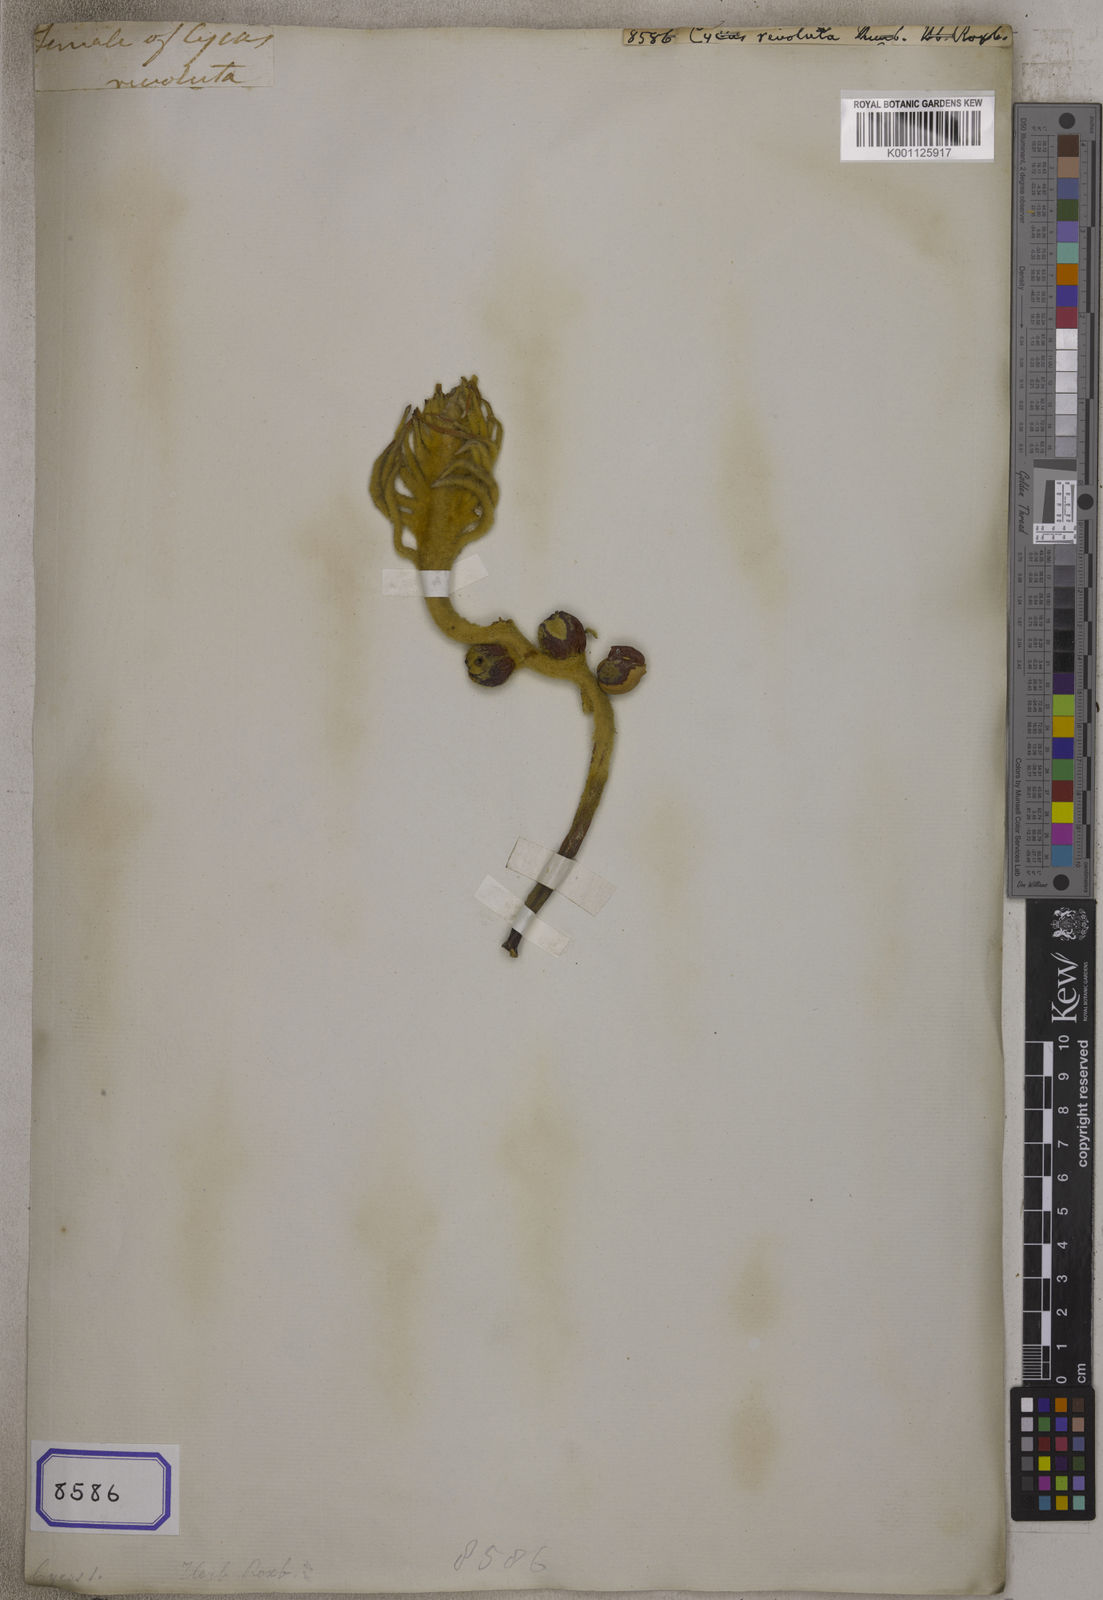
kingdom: Plantae
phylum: Tracheophyta
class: Cycadopsida
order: Cycadales
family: Cycadaceae
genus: Cycas
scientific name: Cycas revoluta
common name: Sago palm
